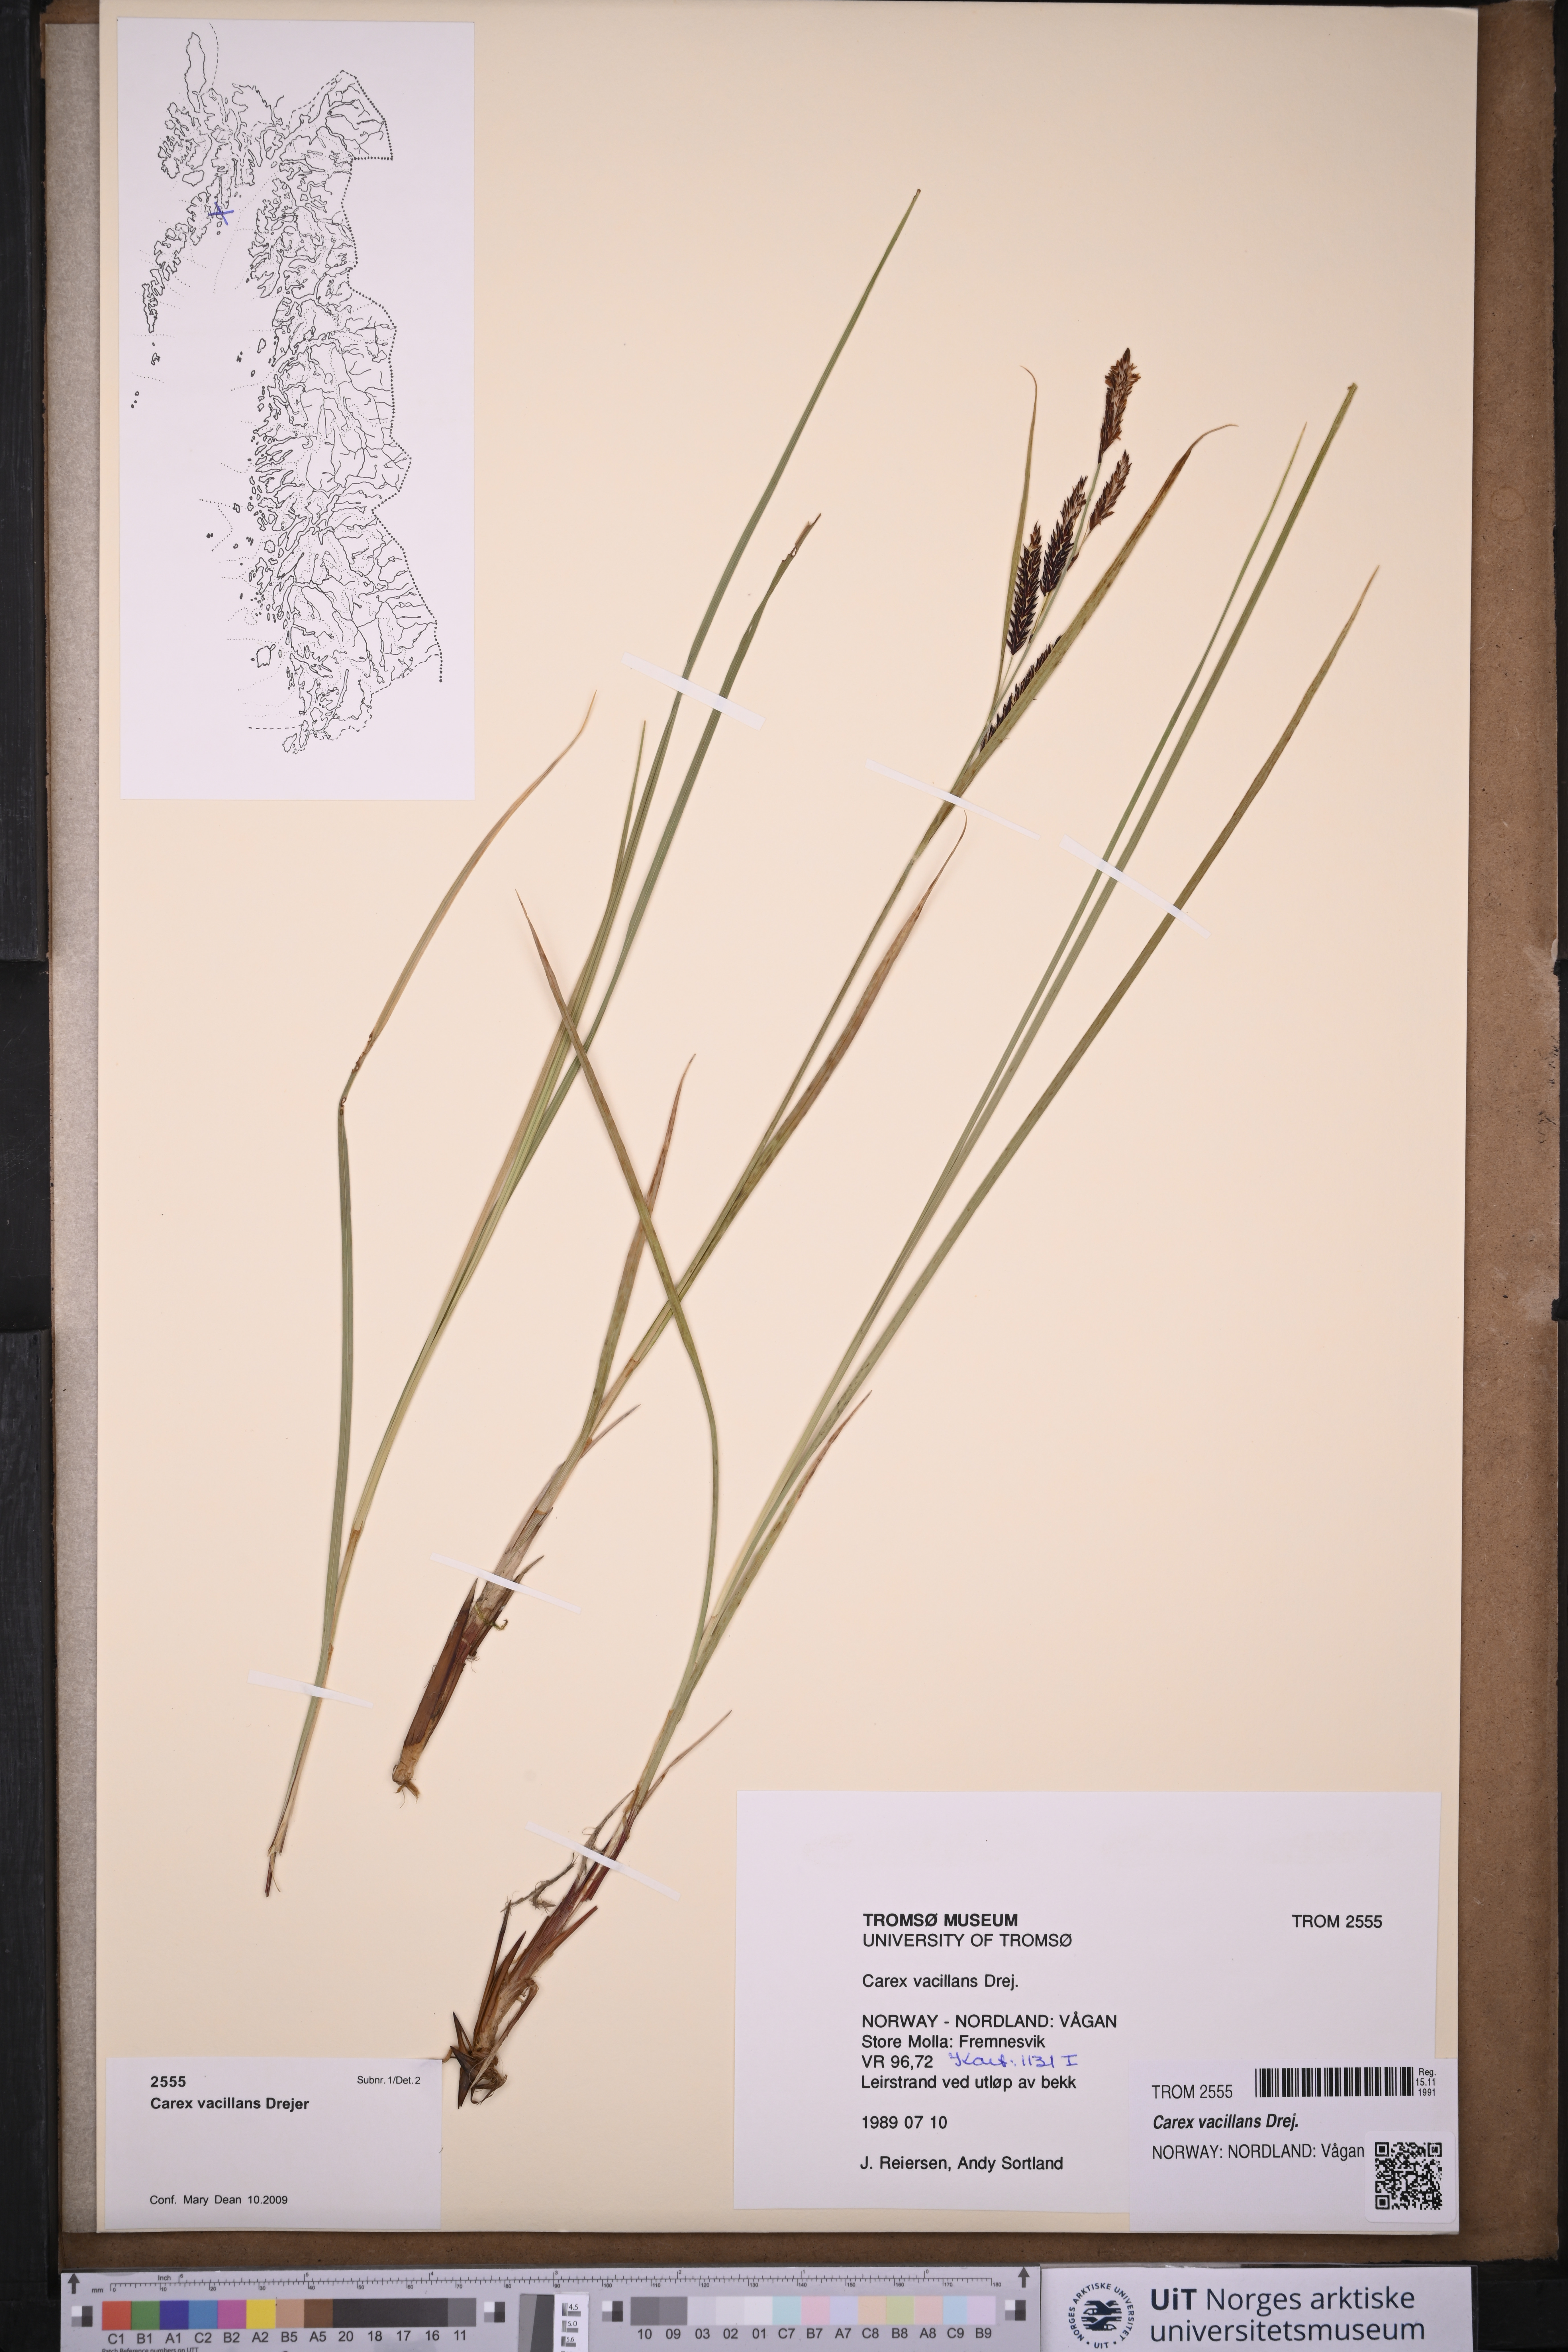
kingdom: Plantae
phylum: Tracheophyta
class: Liliopsida
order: Poales
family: Cyperaceae
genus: Carex
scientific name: Carex vacillans
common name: Sedge
